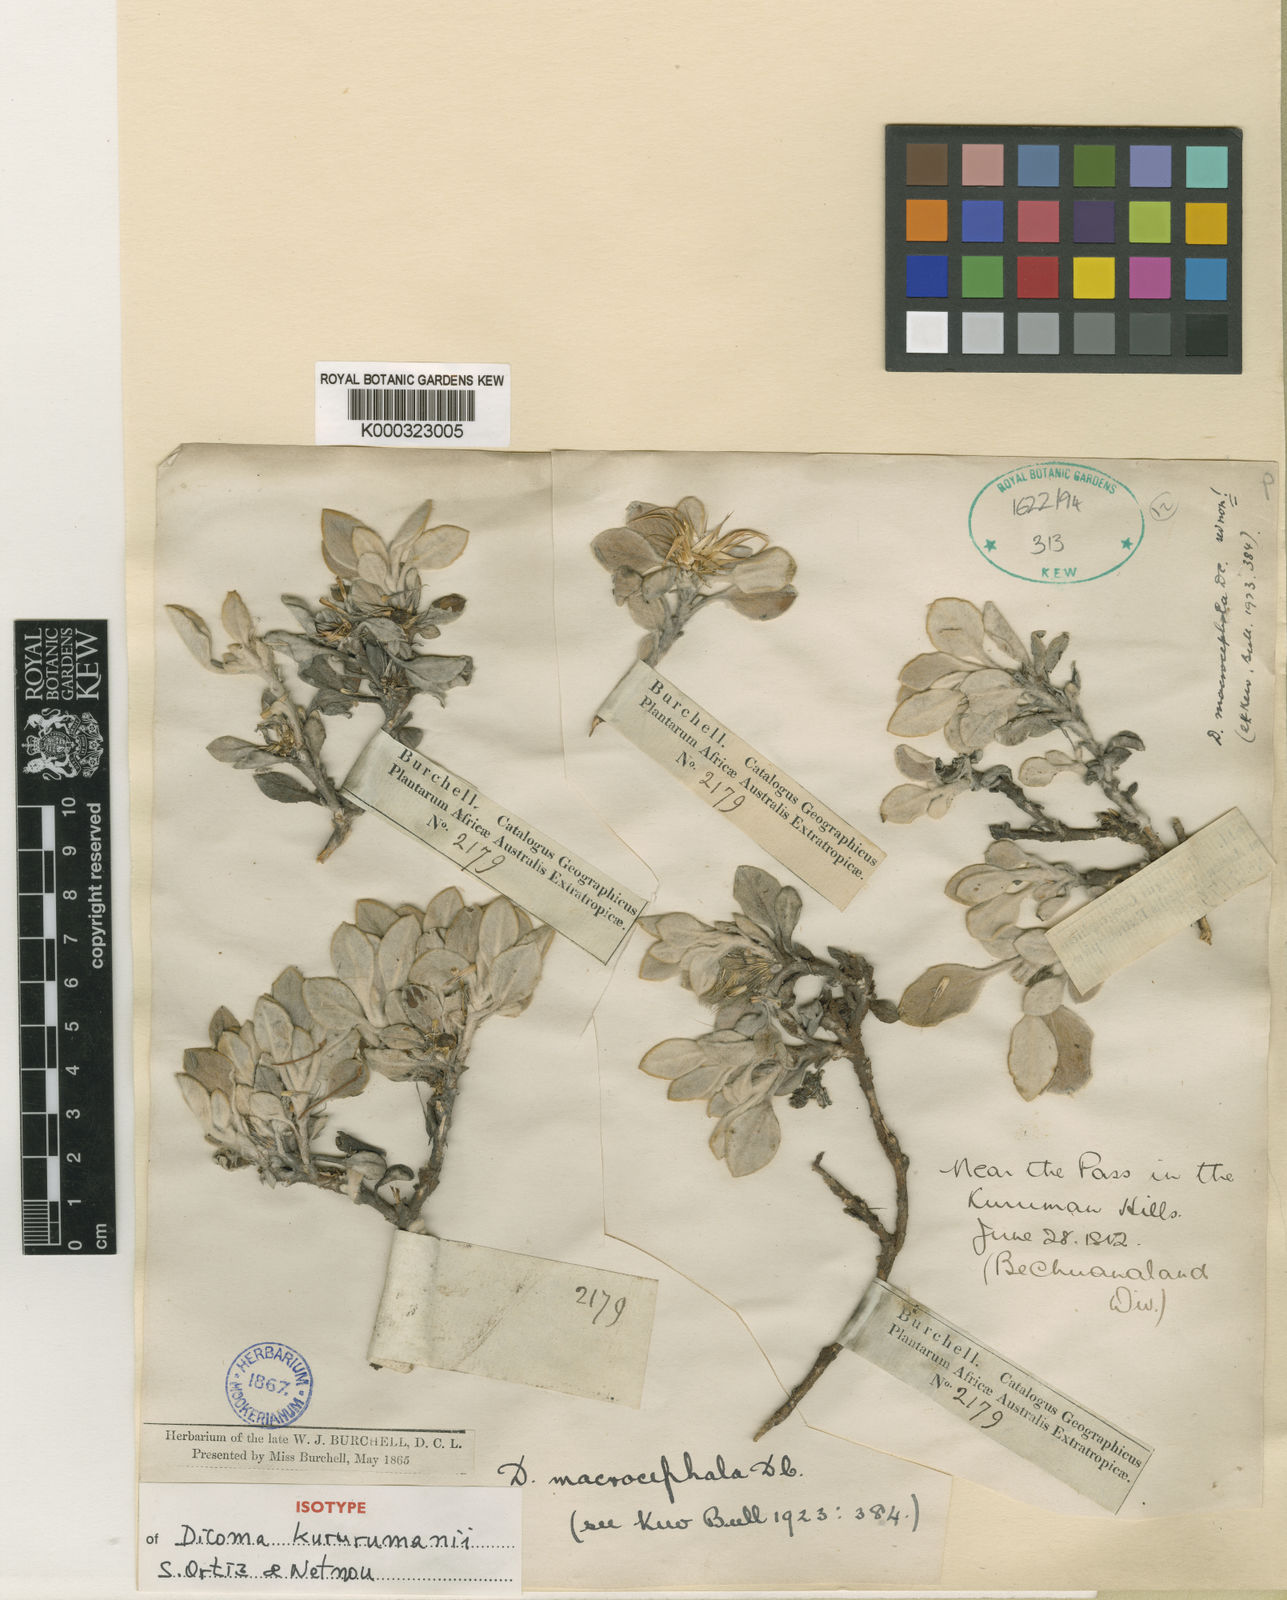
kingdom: Plantae
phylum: Tracheophyta
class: Magnoliopsida
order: Asterales
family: Asteraceae
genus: Dicoma
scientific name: Dicoma kurumanii
